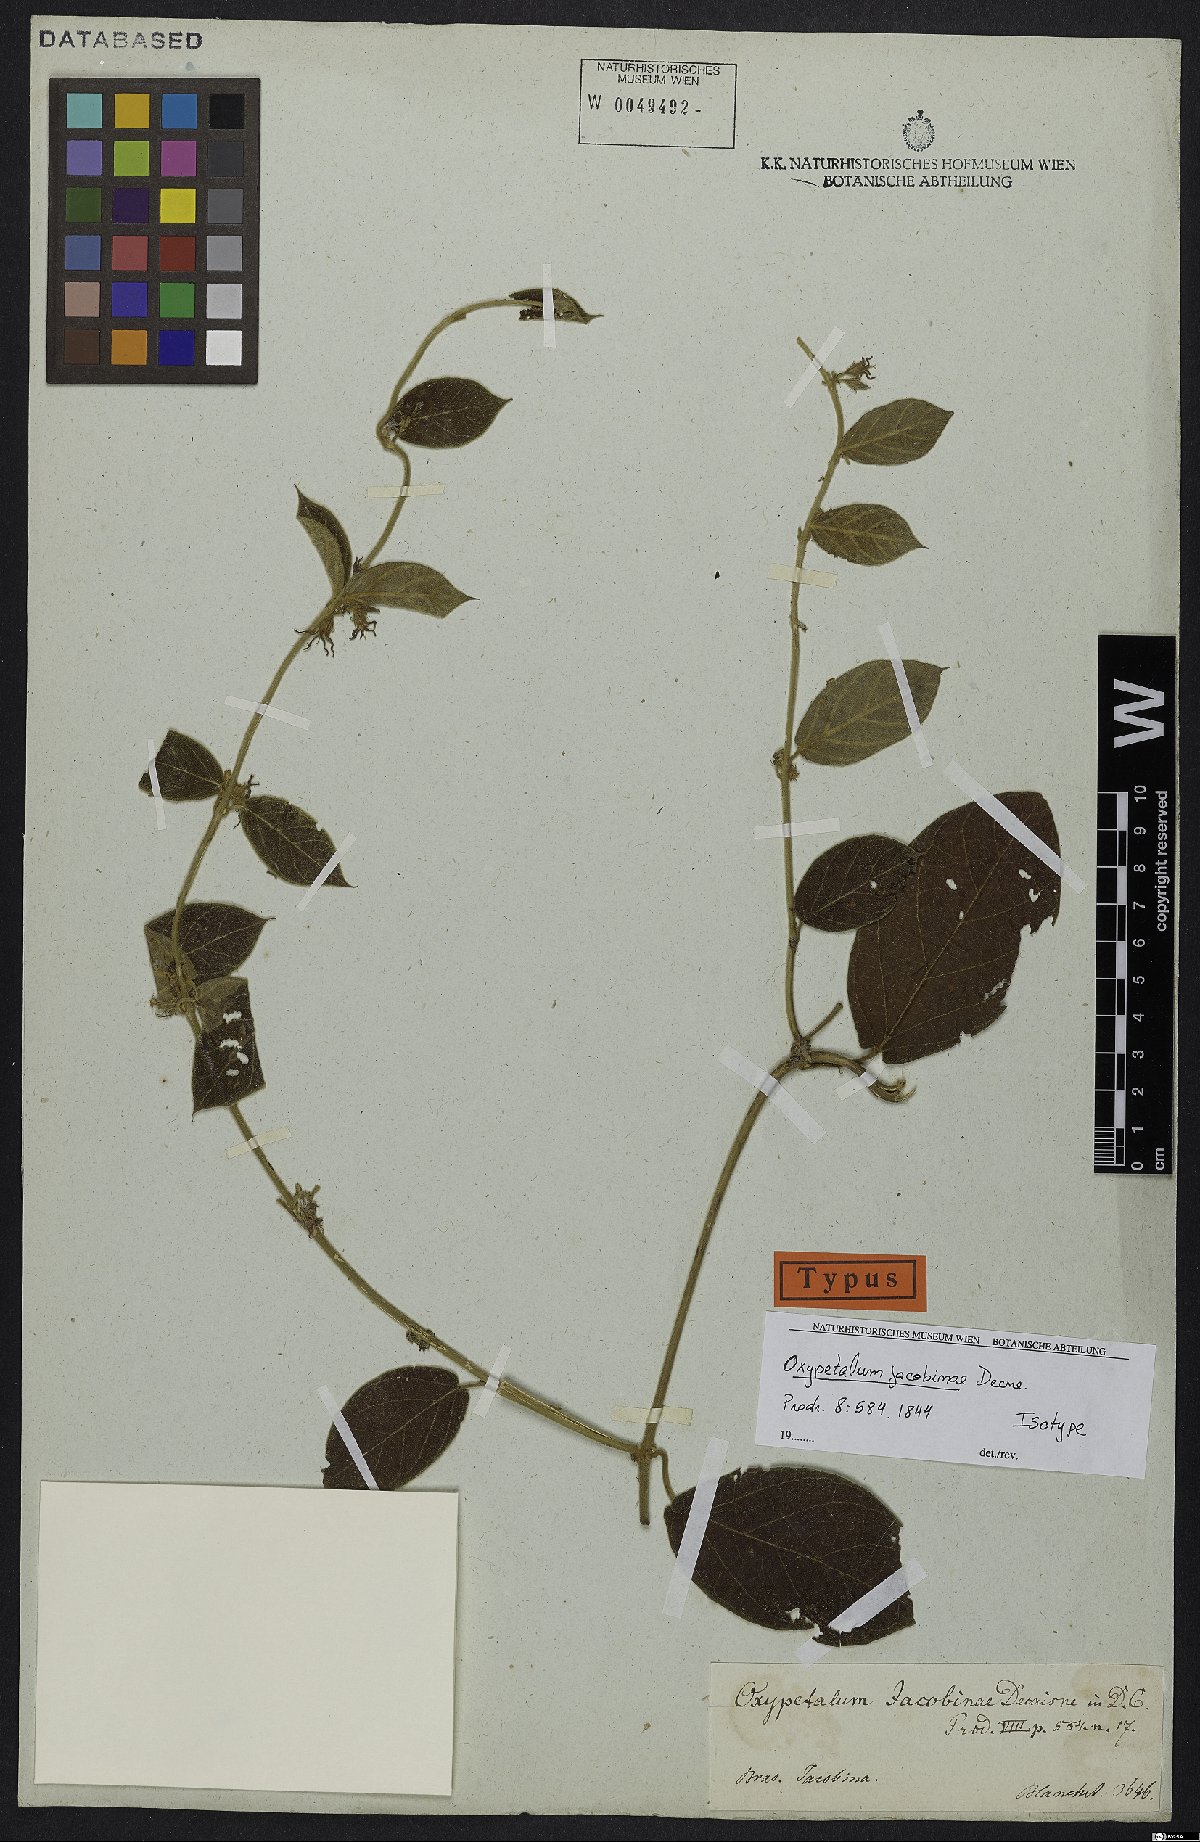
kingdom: Plantae
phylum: Tracheophyta
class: Magnoliopsida
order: Gentianales
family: Apocynaceae
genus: Oxypetalum
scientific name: Oxypetalum jacobinae
